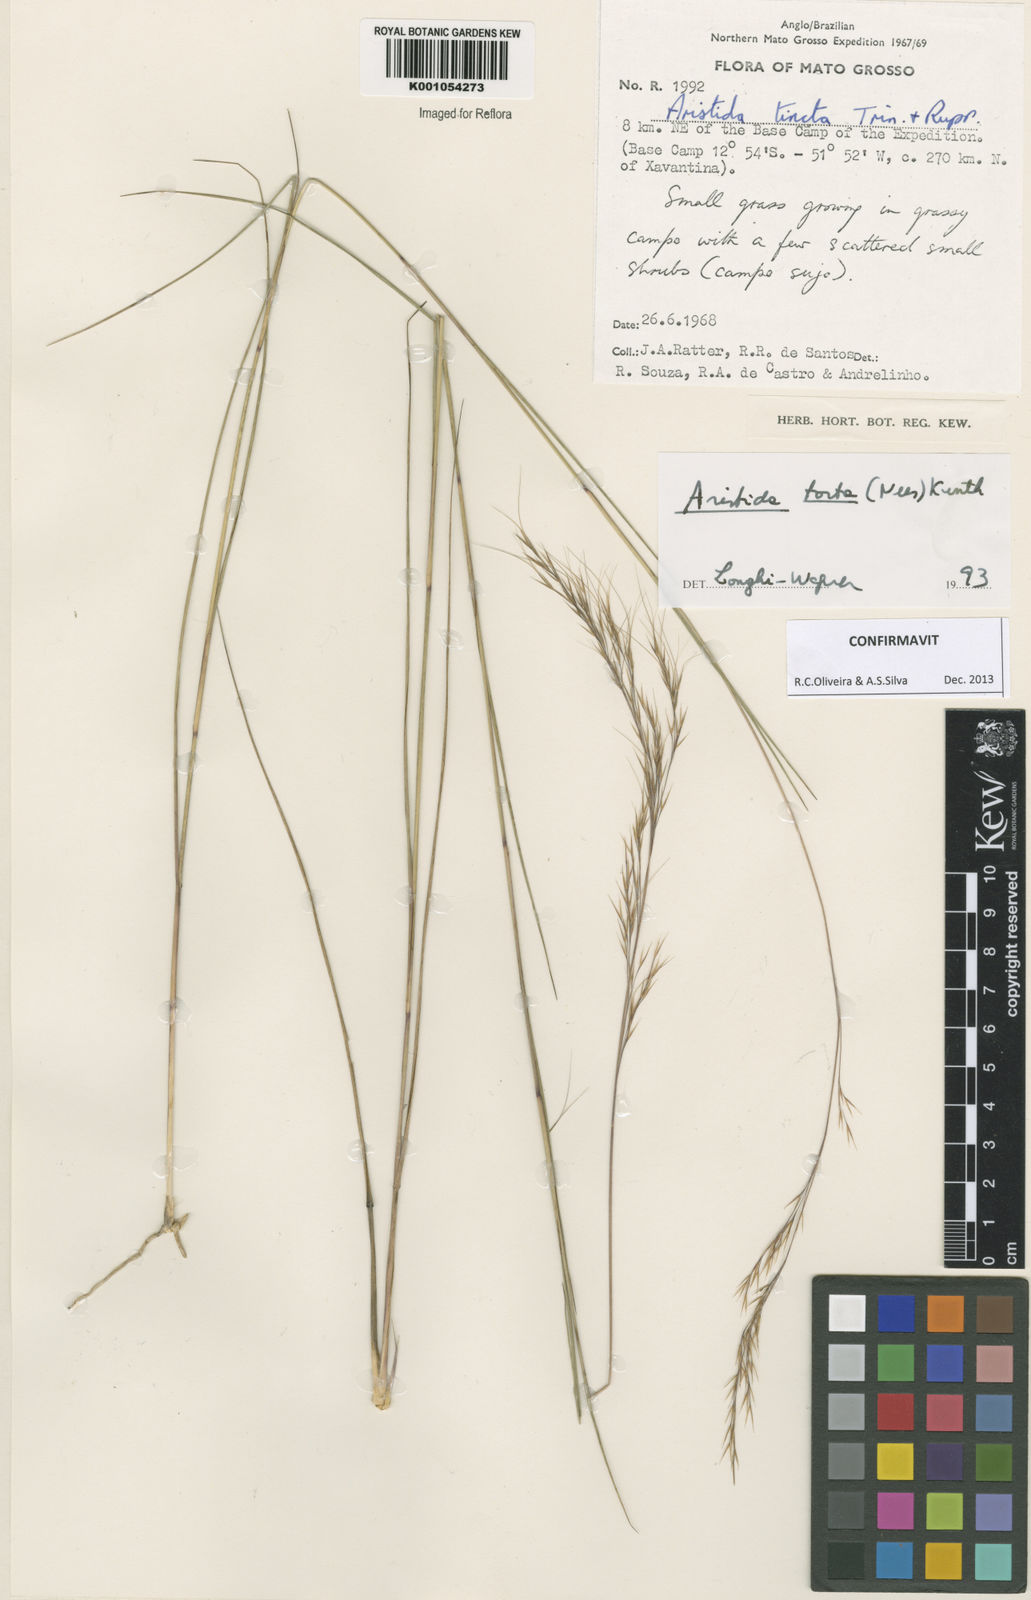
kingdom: Plantae
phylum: Tracheophyta
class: Liliopsida
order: Poales
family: Poaceae
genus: Aristida
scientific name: Aristida torta
